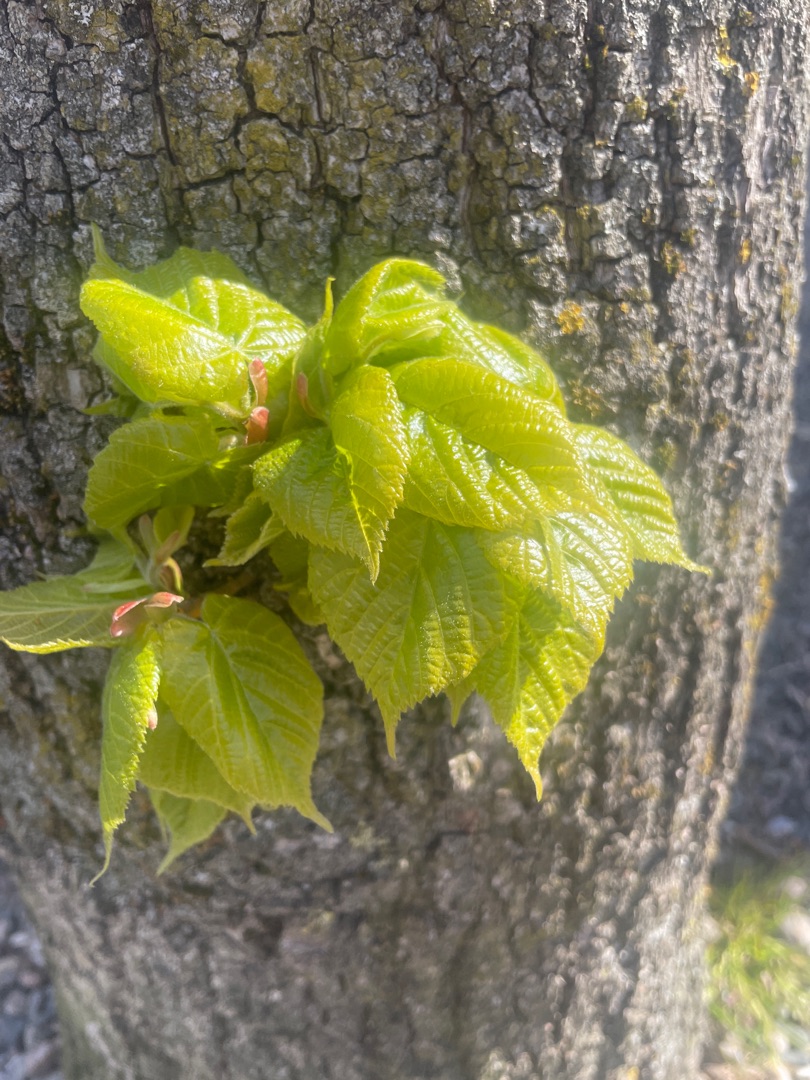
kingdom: Plantae
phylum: Tracheophyta
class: Magnoliopsida
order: Malvales
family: Malvaceae
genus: Tilia
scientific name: Tilia platyphyllos
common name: Storbladet lind
